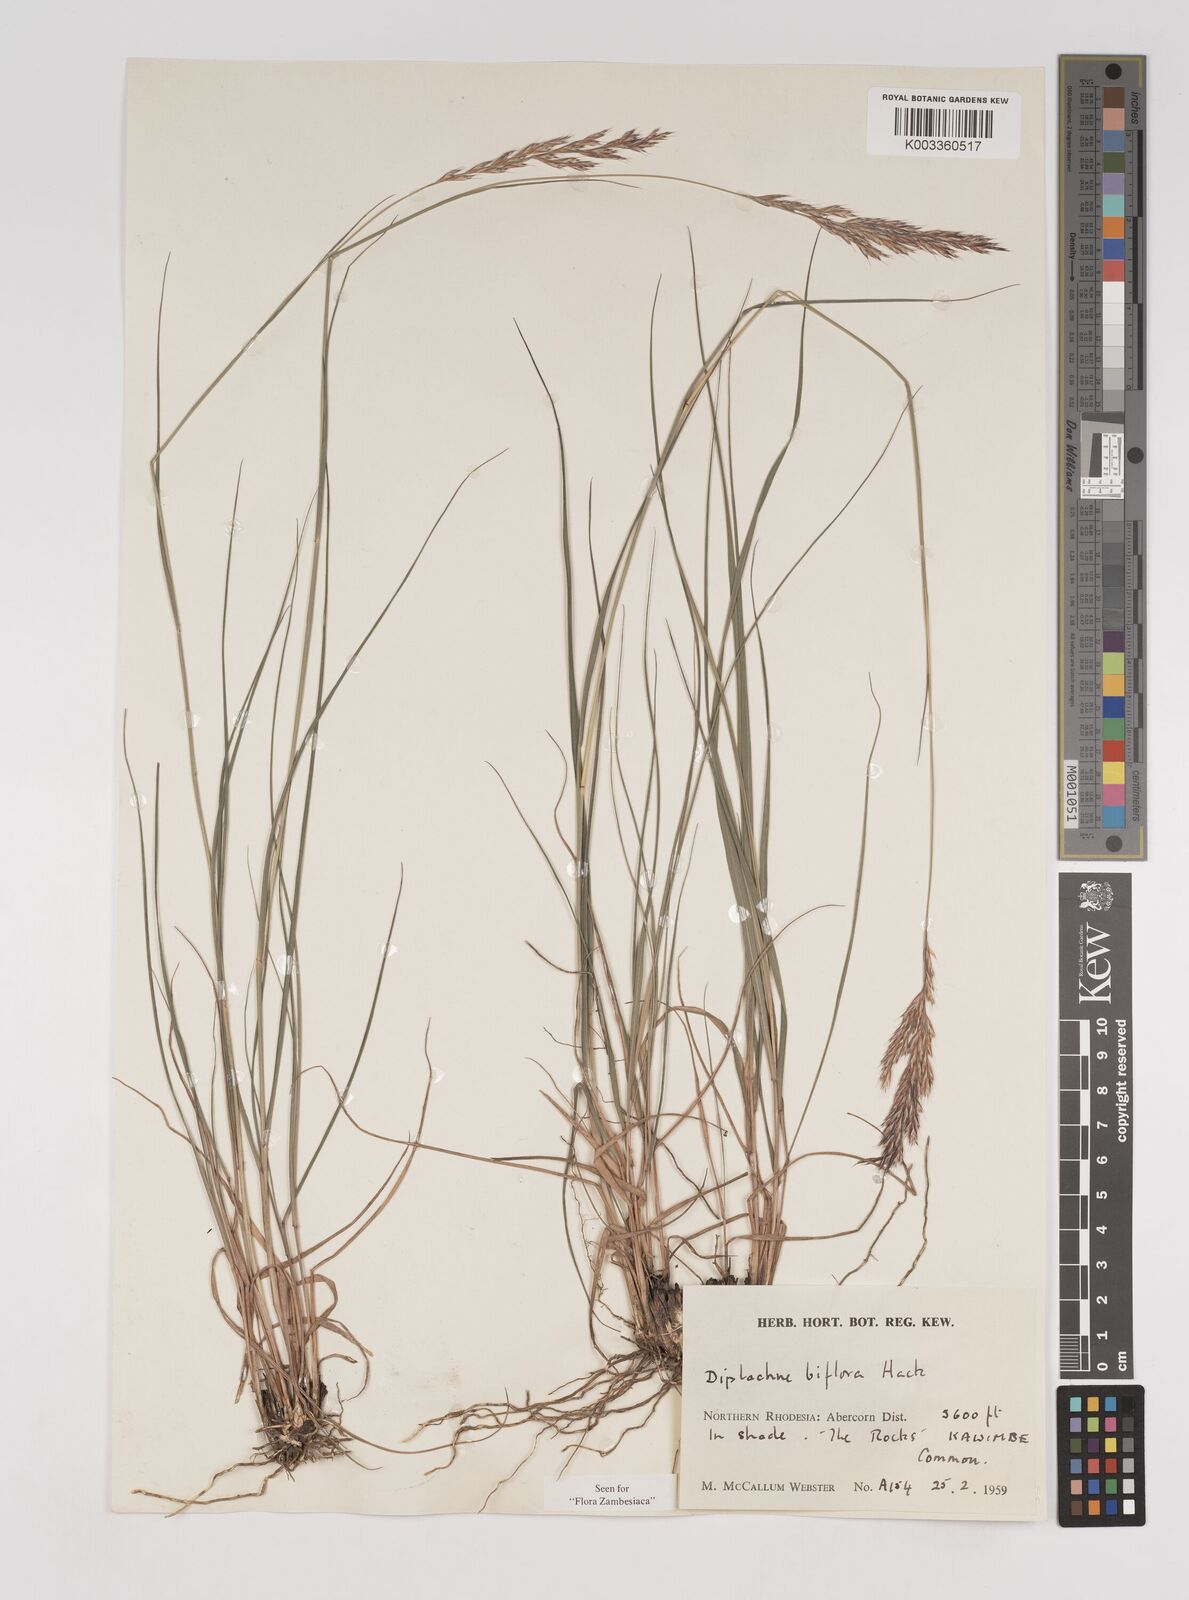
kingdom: Plantae
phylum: Tracheophyta
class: Liliopsida
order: Poales
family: Poaceae
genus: Bewsia
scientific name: Bewsia biflora
